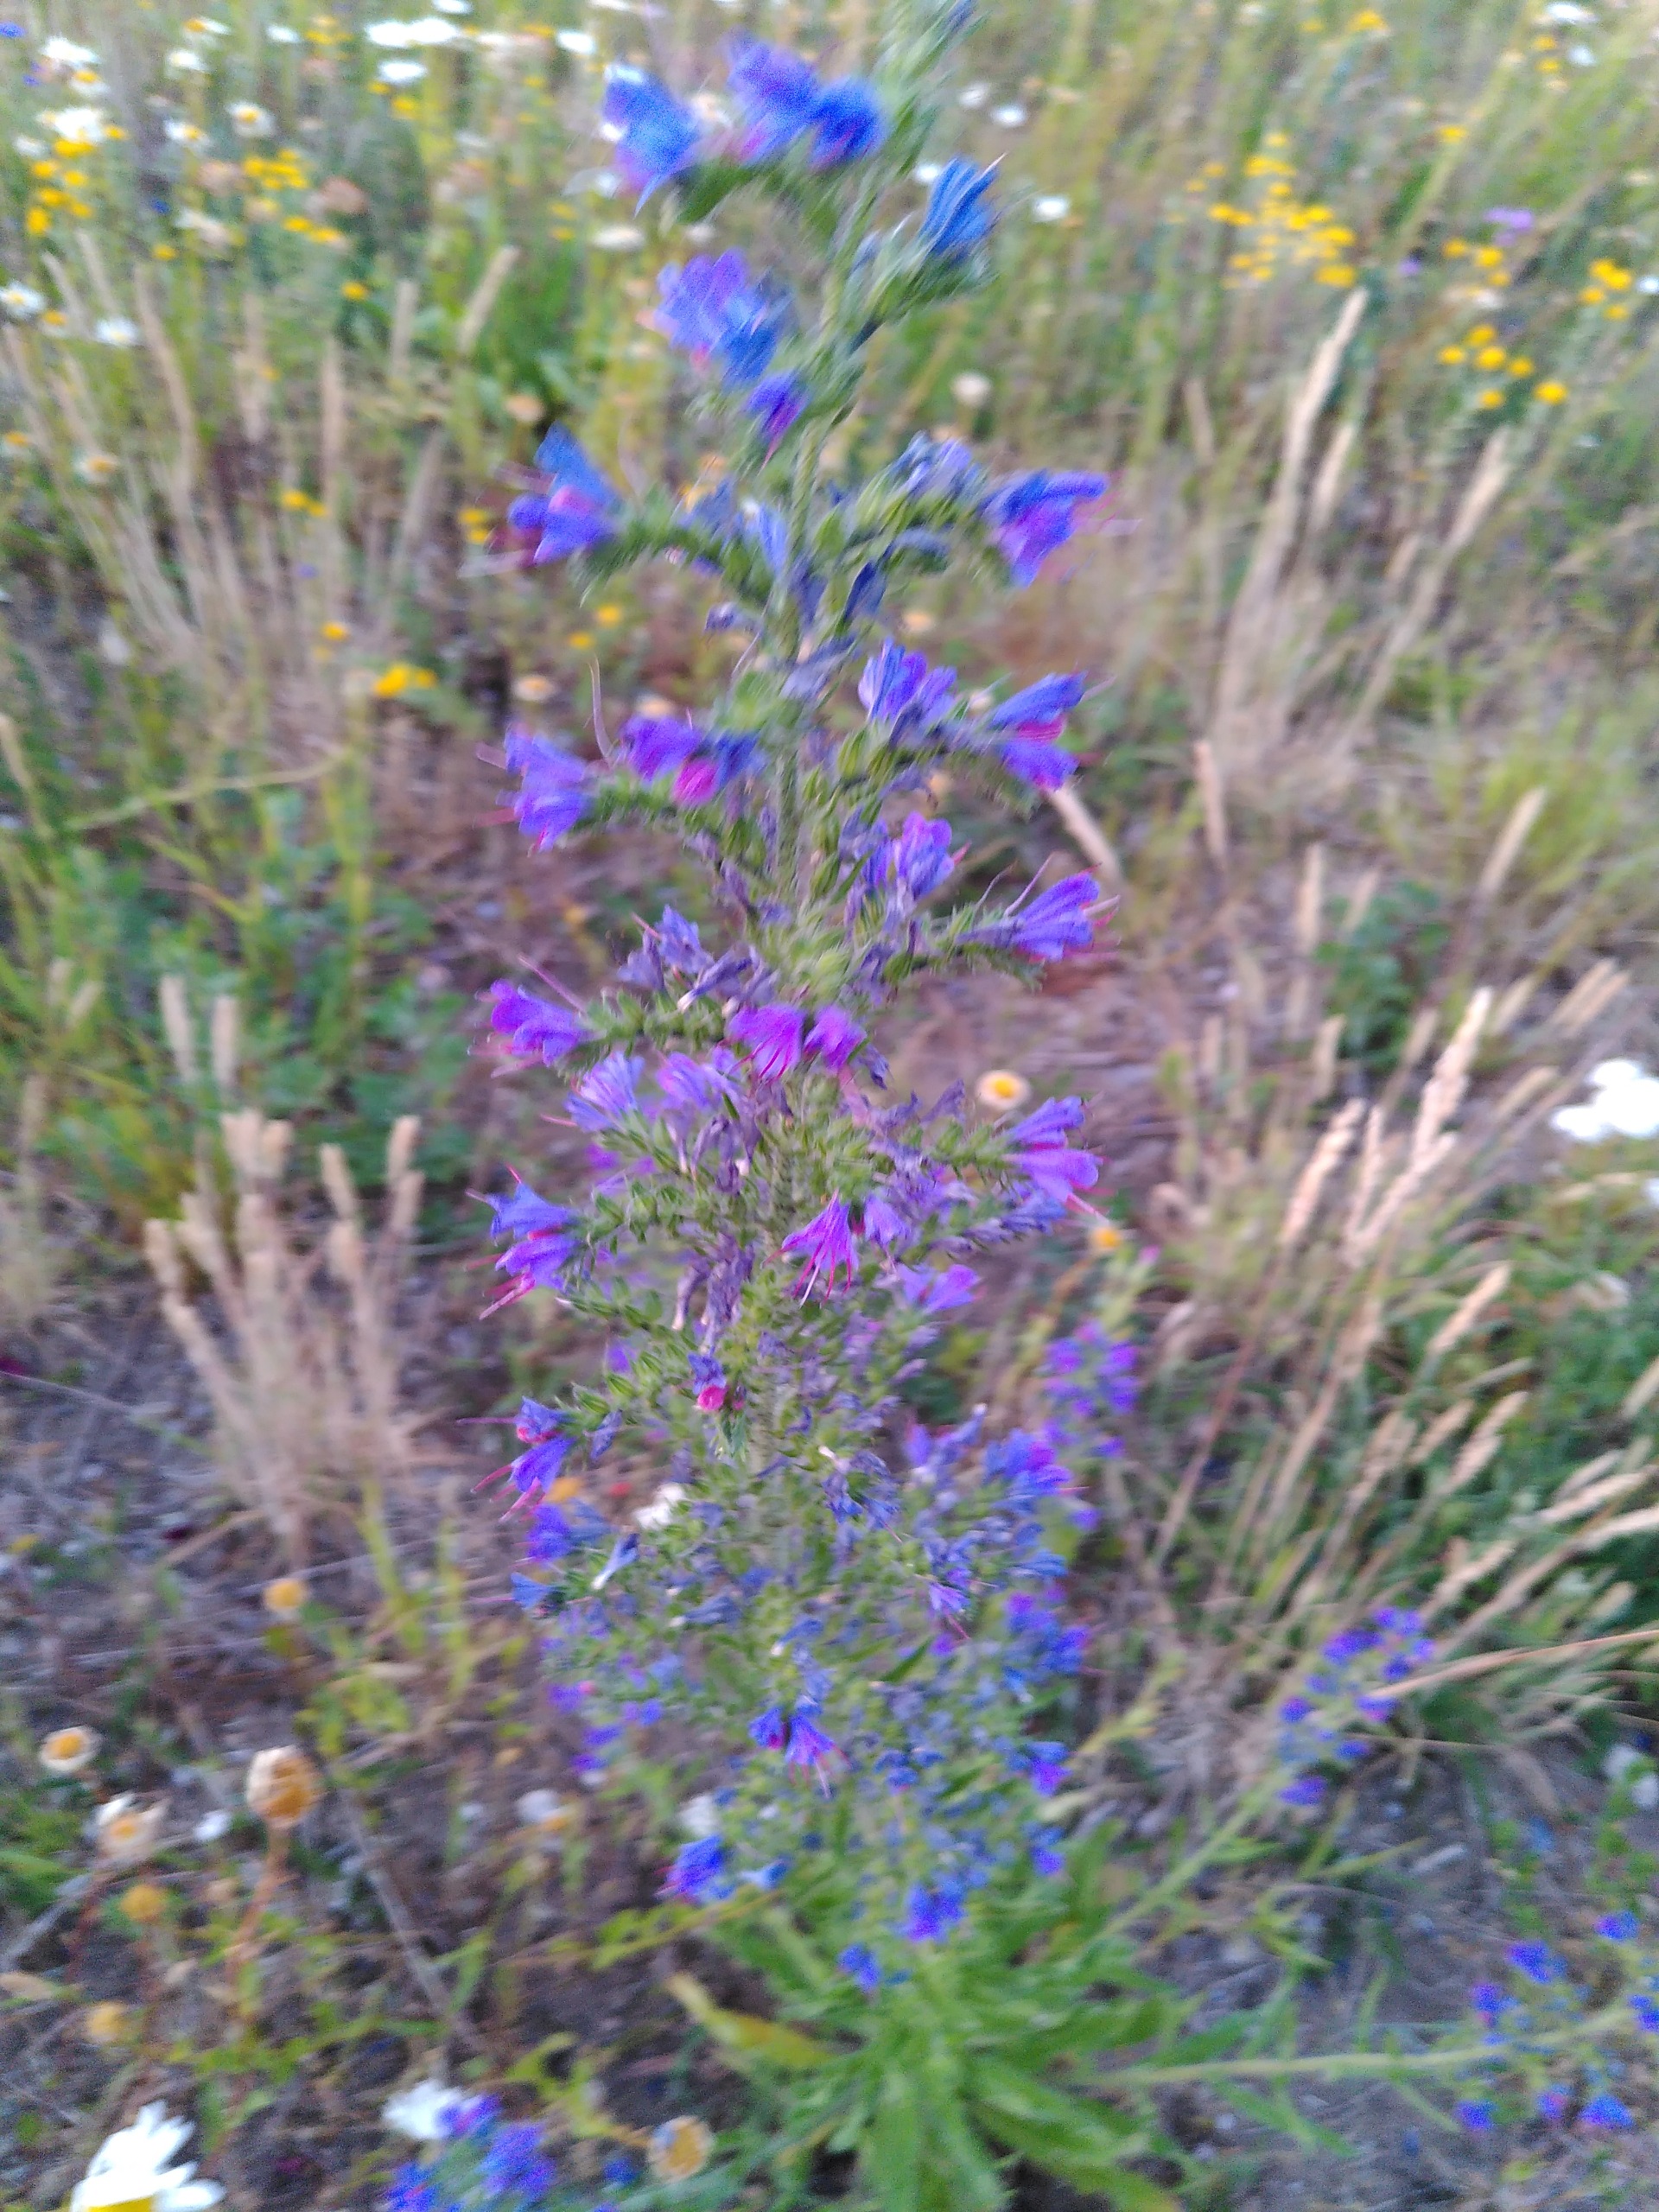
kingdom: Plantae
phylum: Tracheophyta
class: Magnoliopsida
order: Boraginales
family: Boraginaceae
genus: Echium
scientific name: Echium vulgare
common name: Slangehoved
